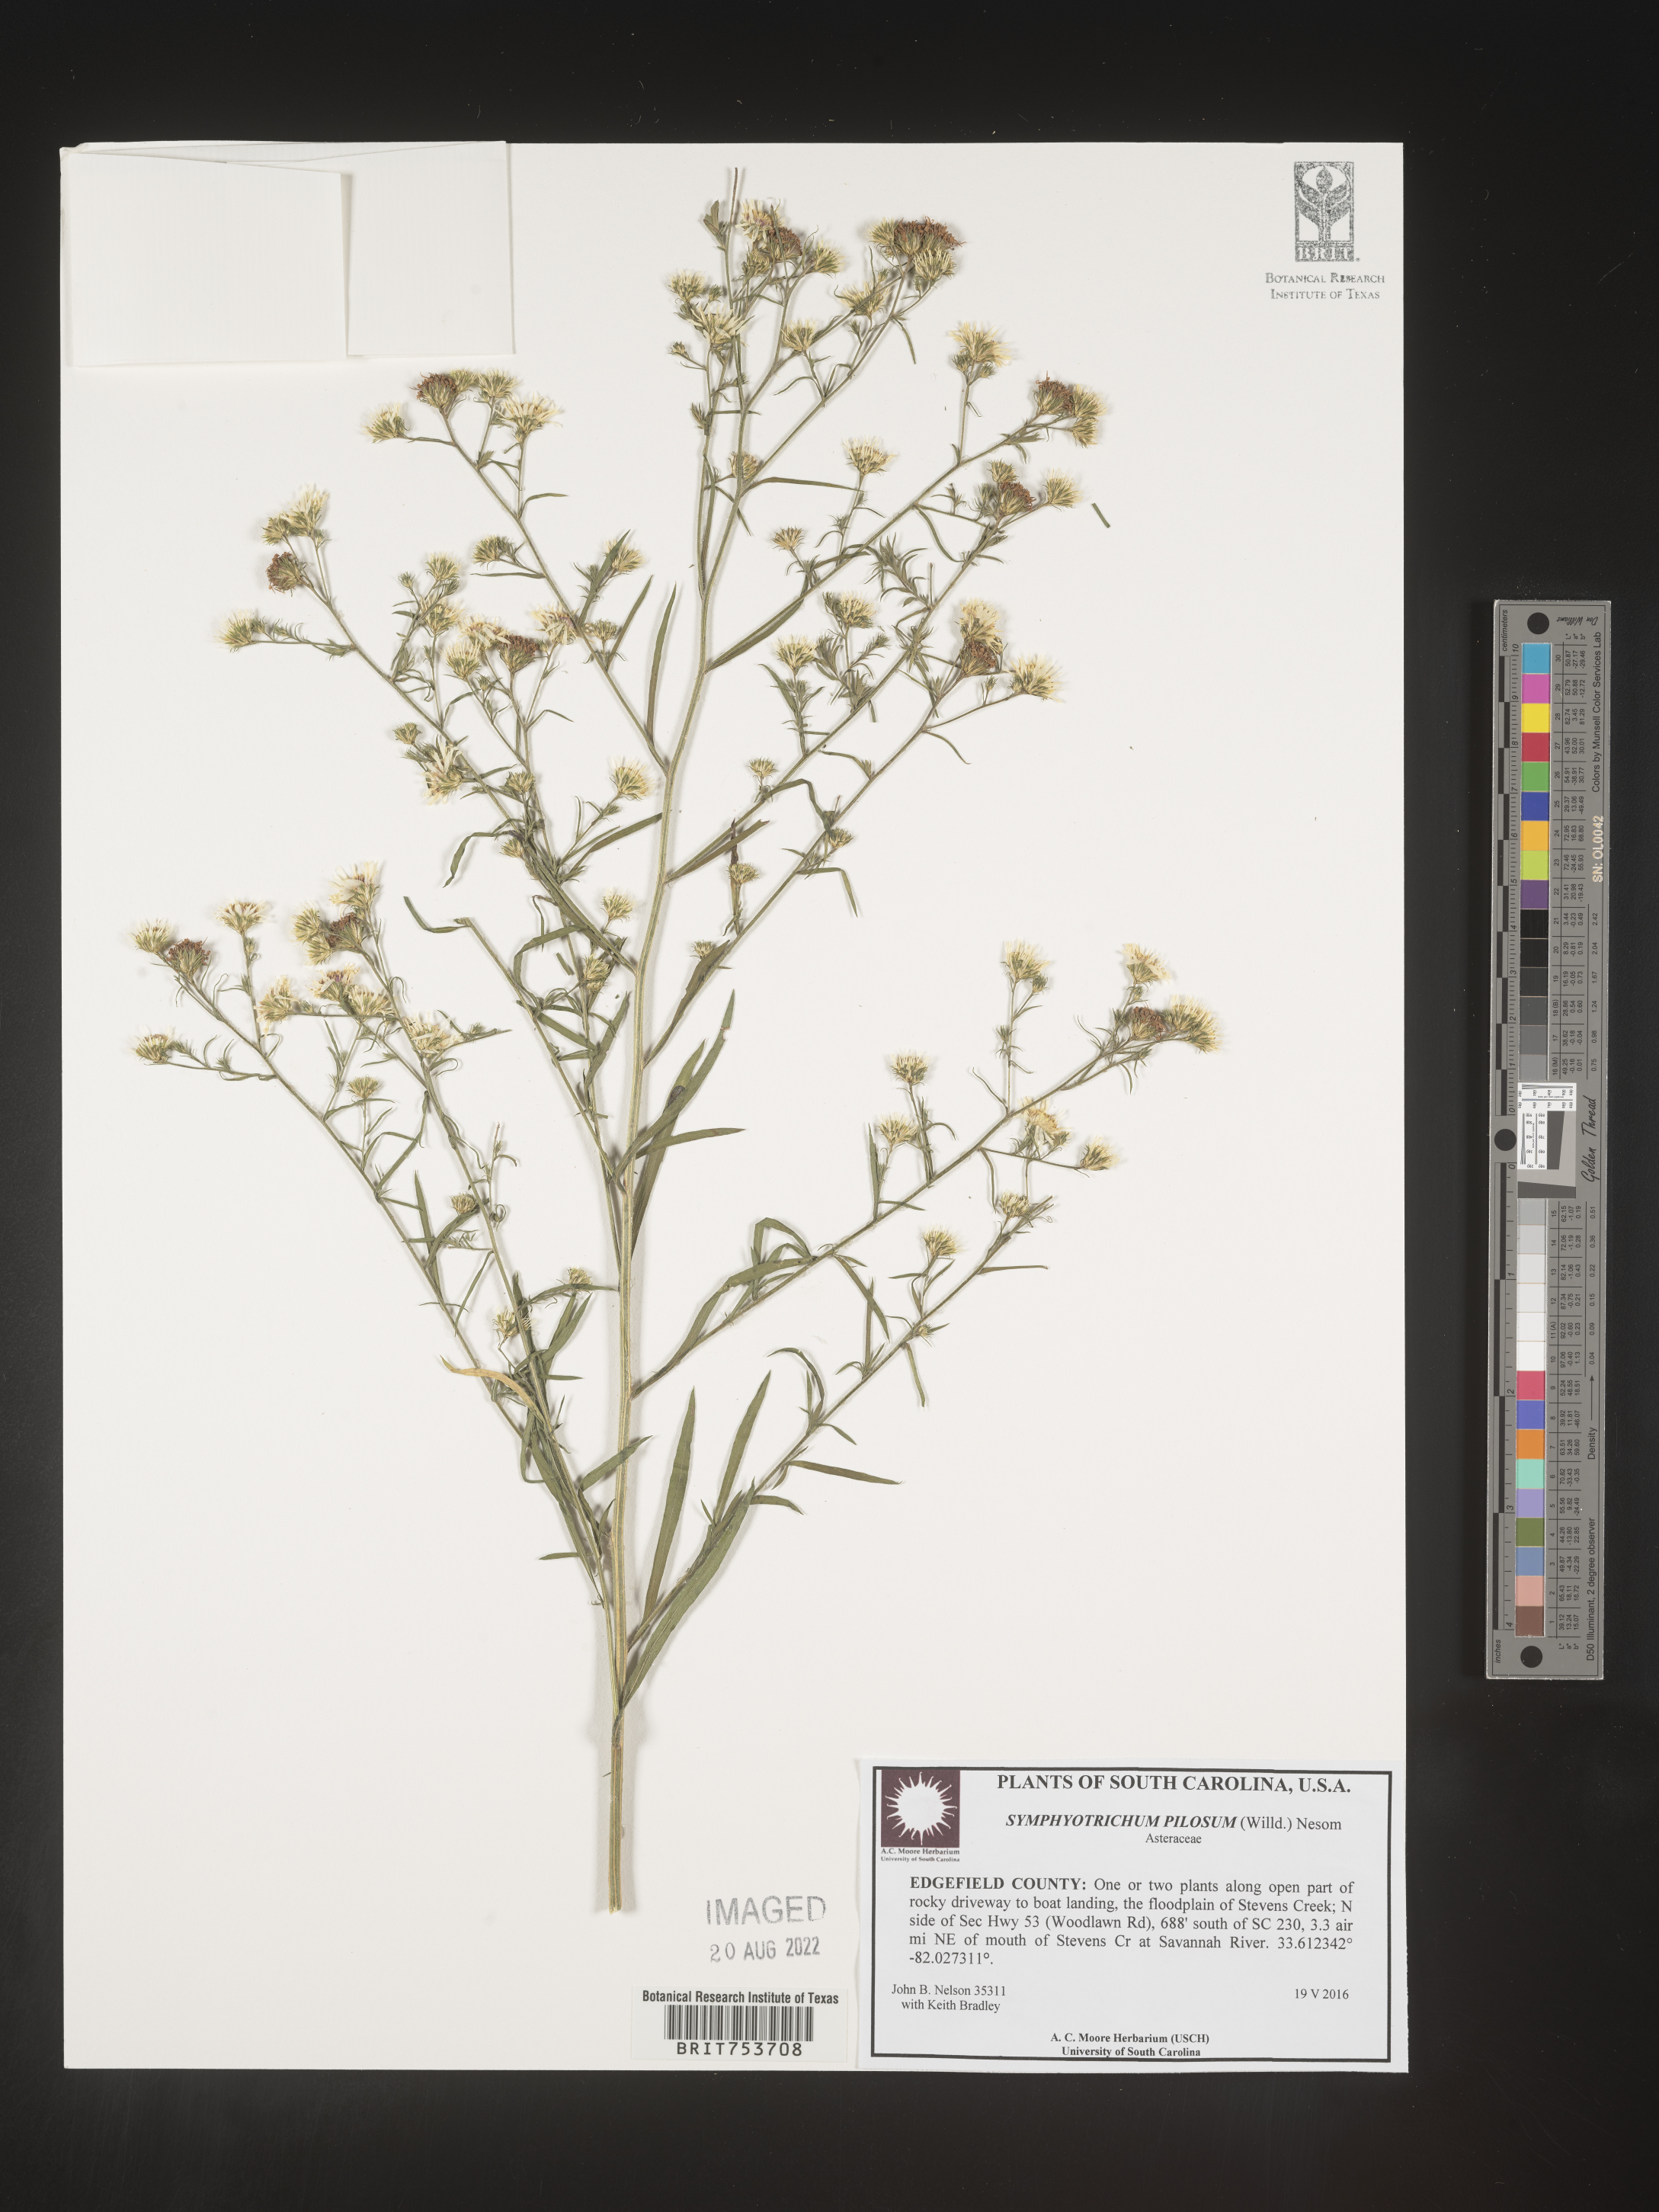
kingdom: Plantae
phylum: Tracheophyta
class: Magnoliopsida
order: Asterales
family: Asteraceae
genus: Symphyotrichum
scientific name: Symphyotrichum pilosum
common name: Awl aster
